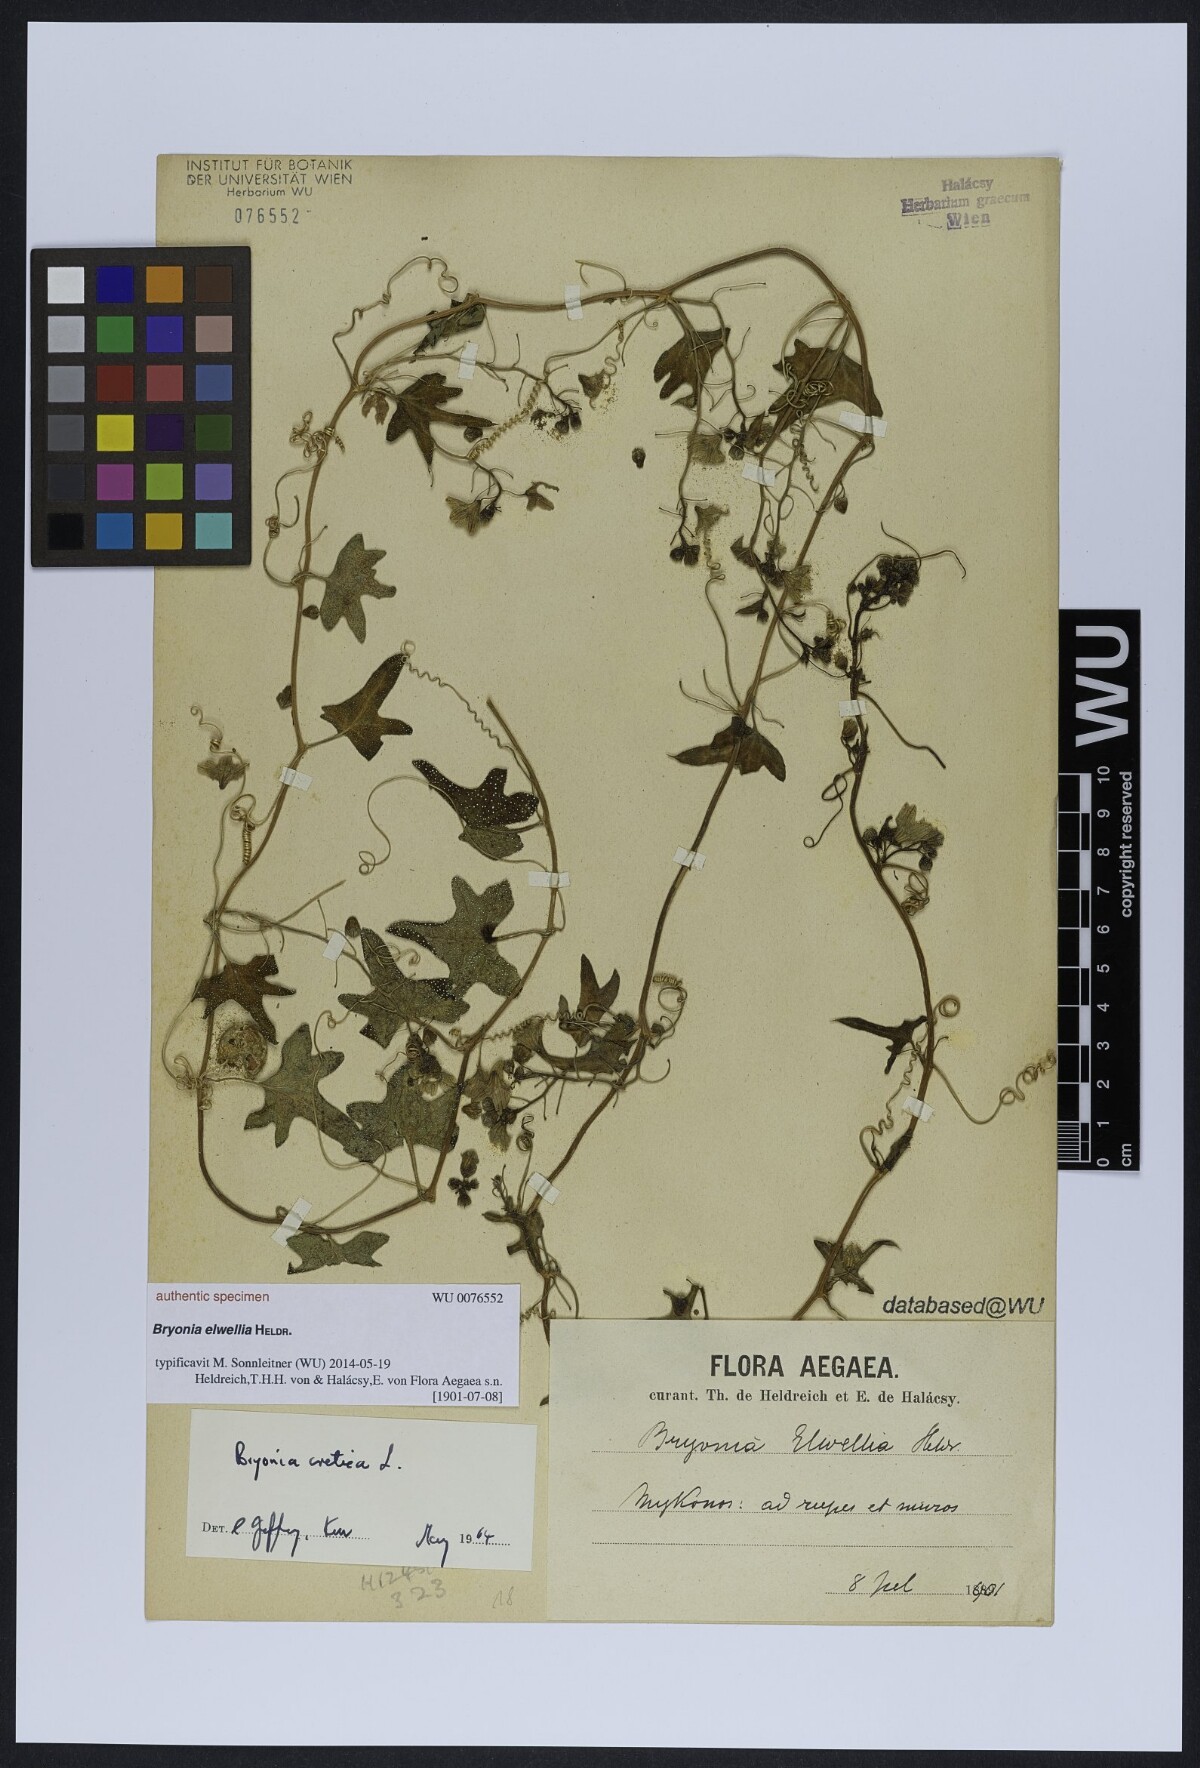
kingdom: Plantae
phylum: Tracheophyta
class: Magnoliopsida
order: Cucurbitales
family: Cucurbitaceae
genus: Bryonia
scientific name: Bryonia
